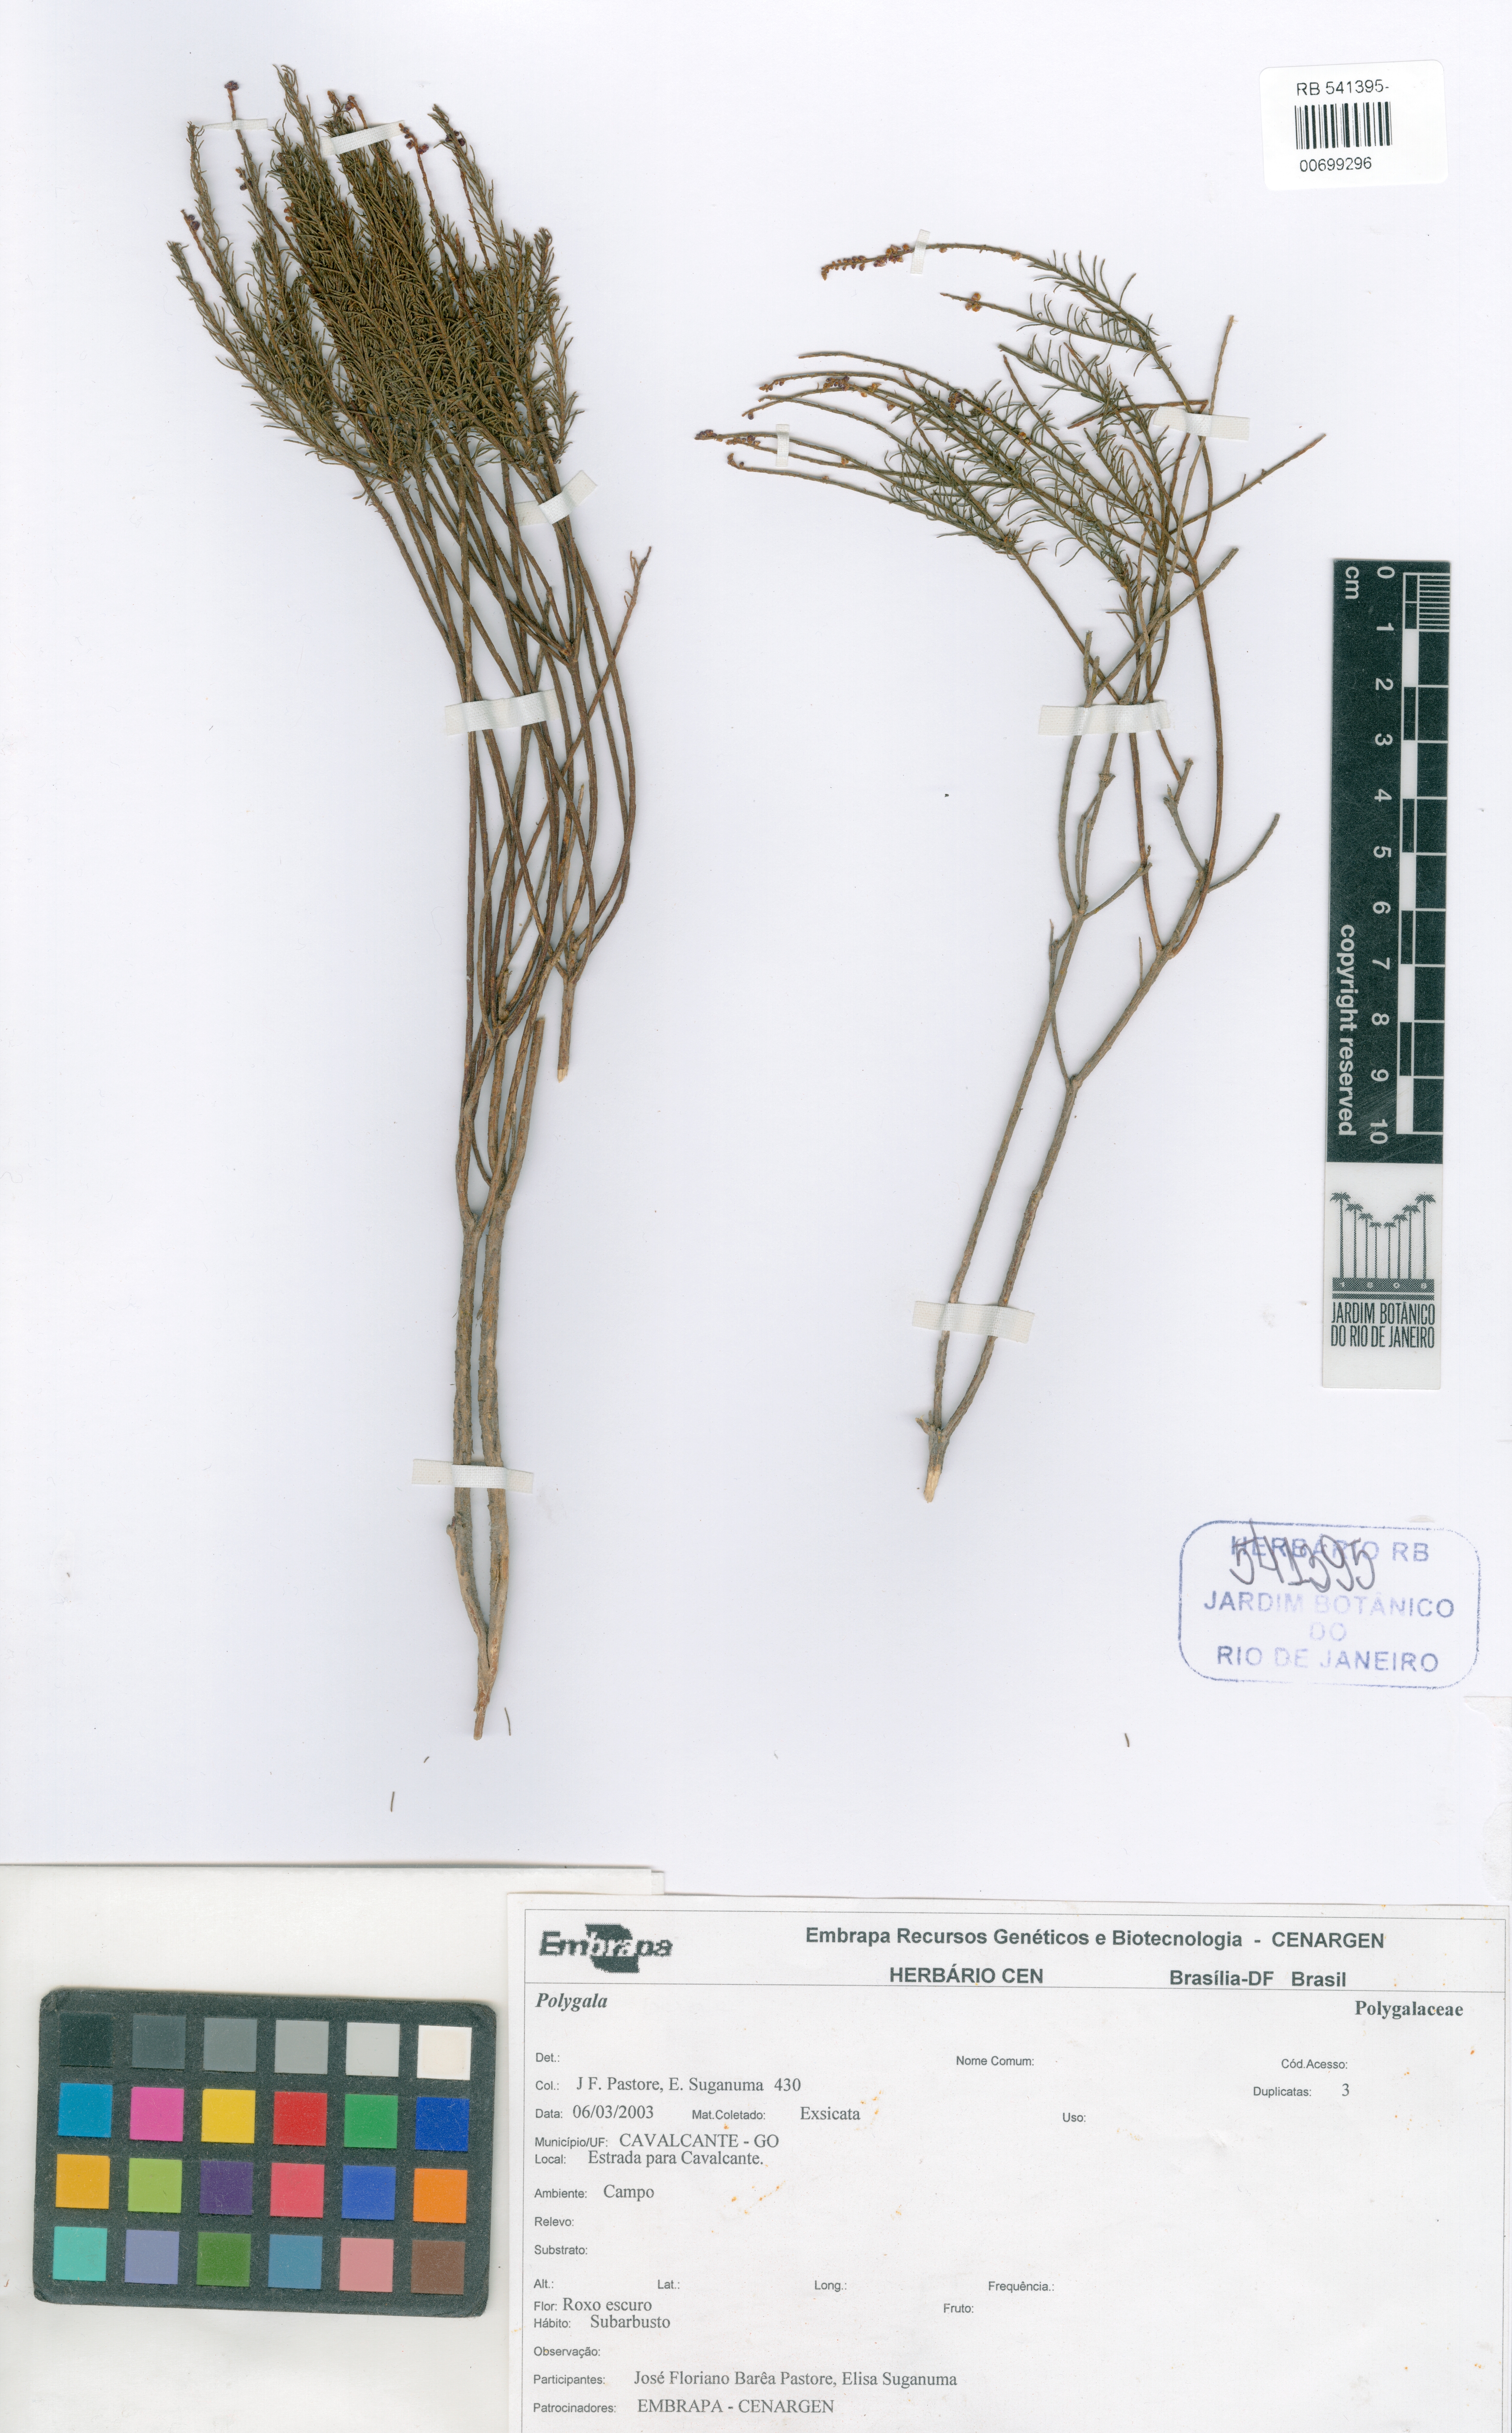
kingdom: Plantae
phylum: Tracheophyta
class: Magnoliopsida
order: Fabales
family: Polygalaceae
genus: Polygala
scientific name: Polygala
